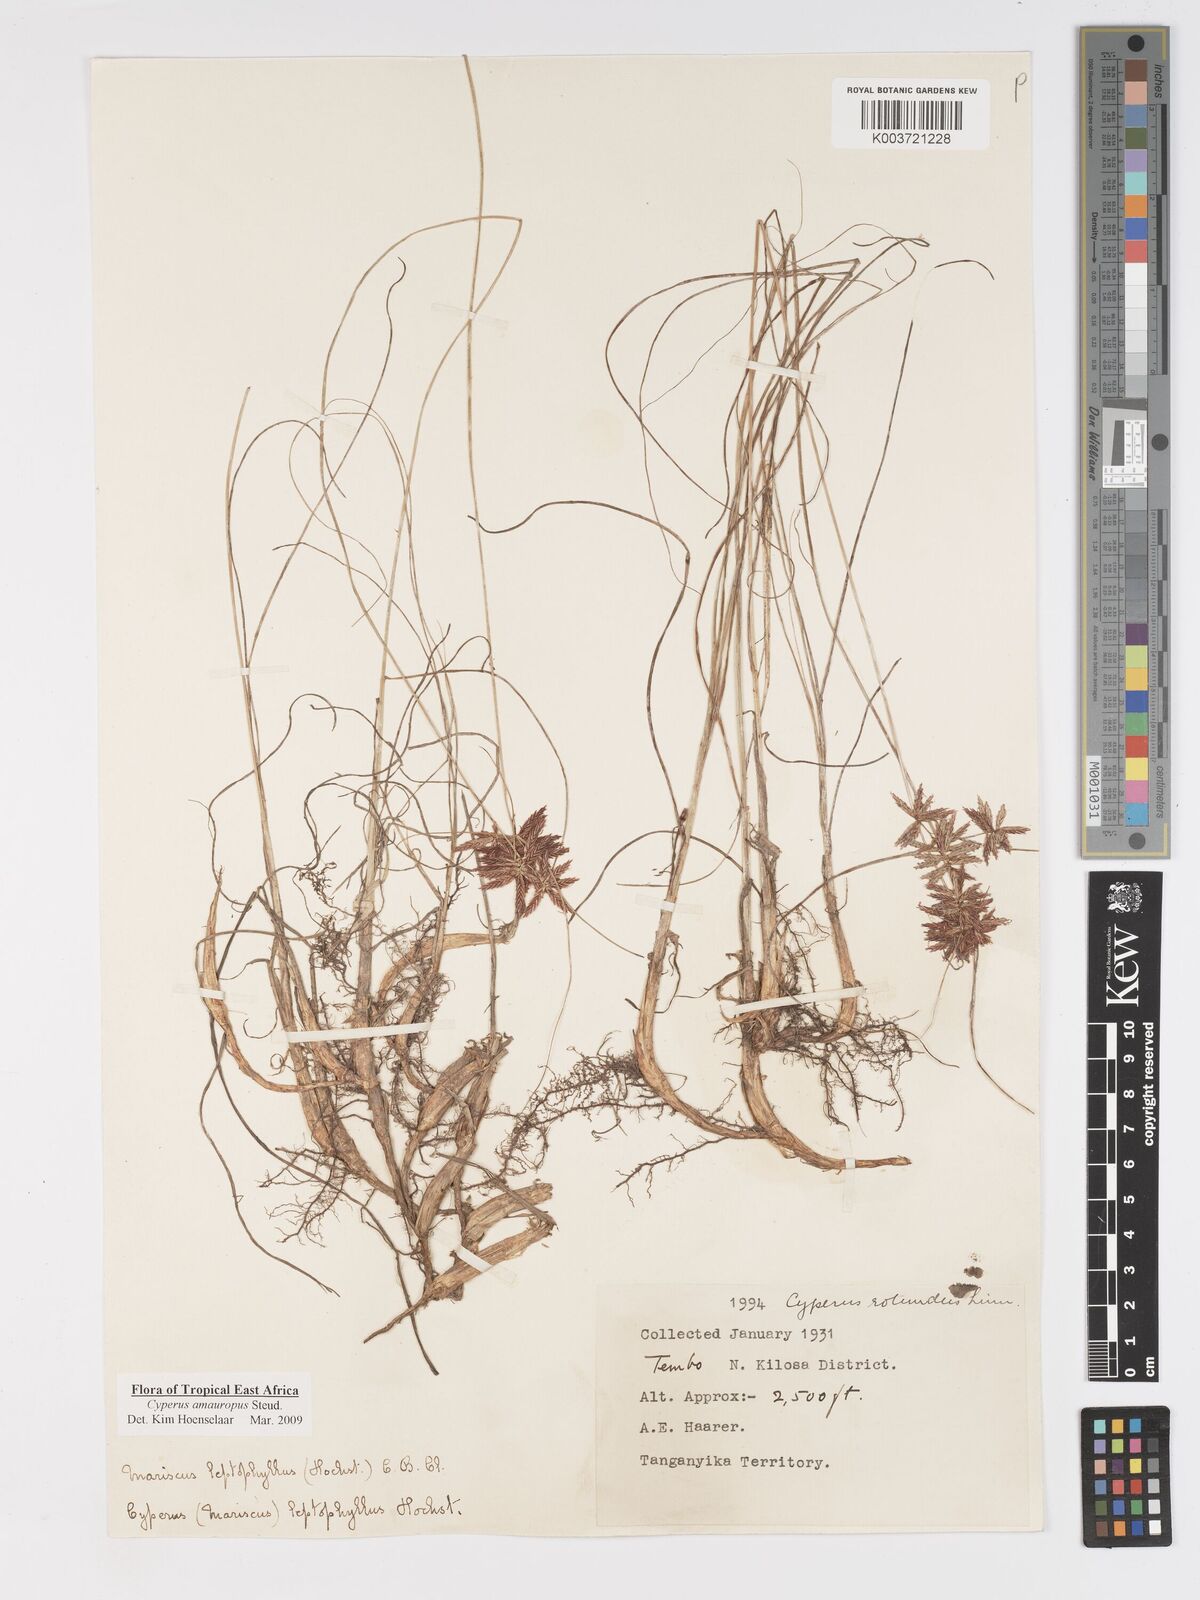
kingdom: Plantae
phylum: Tracheophyta
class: Liliopsida
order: Poales
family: Cyperaceae
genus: Cyperus
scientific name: Cyperus amauropus
